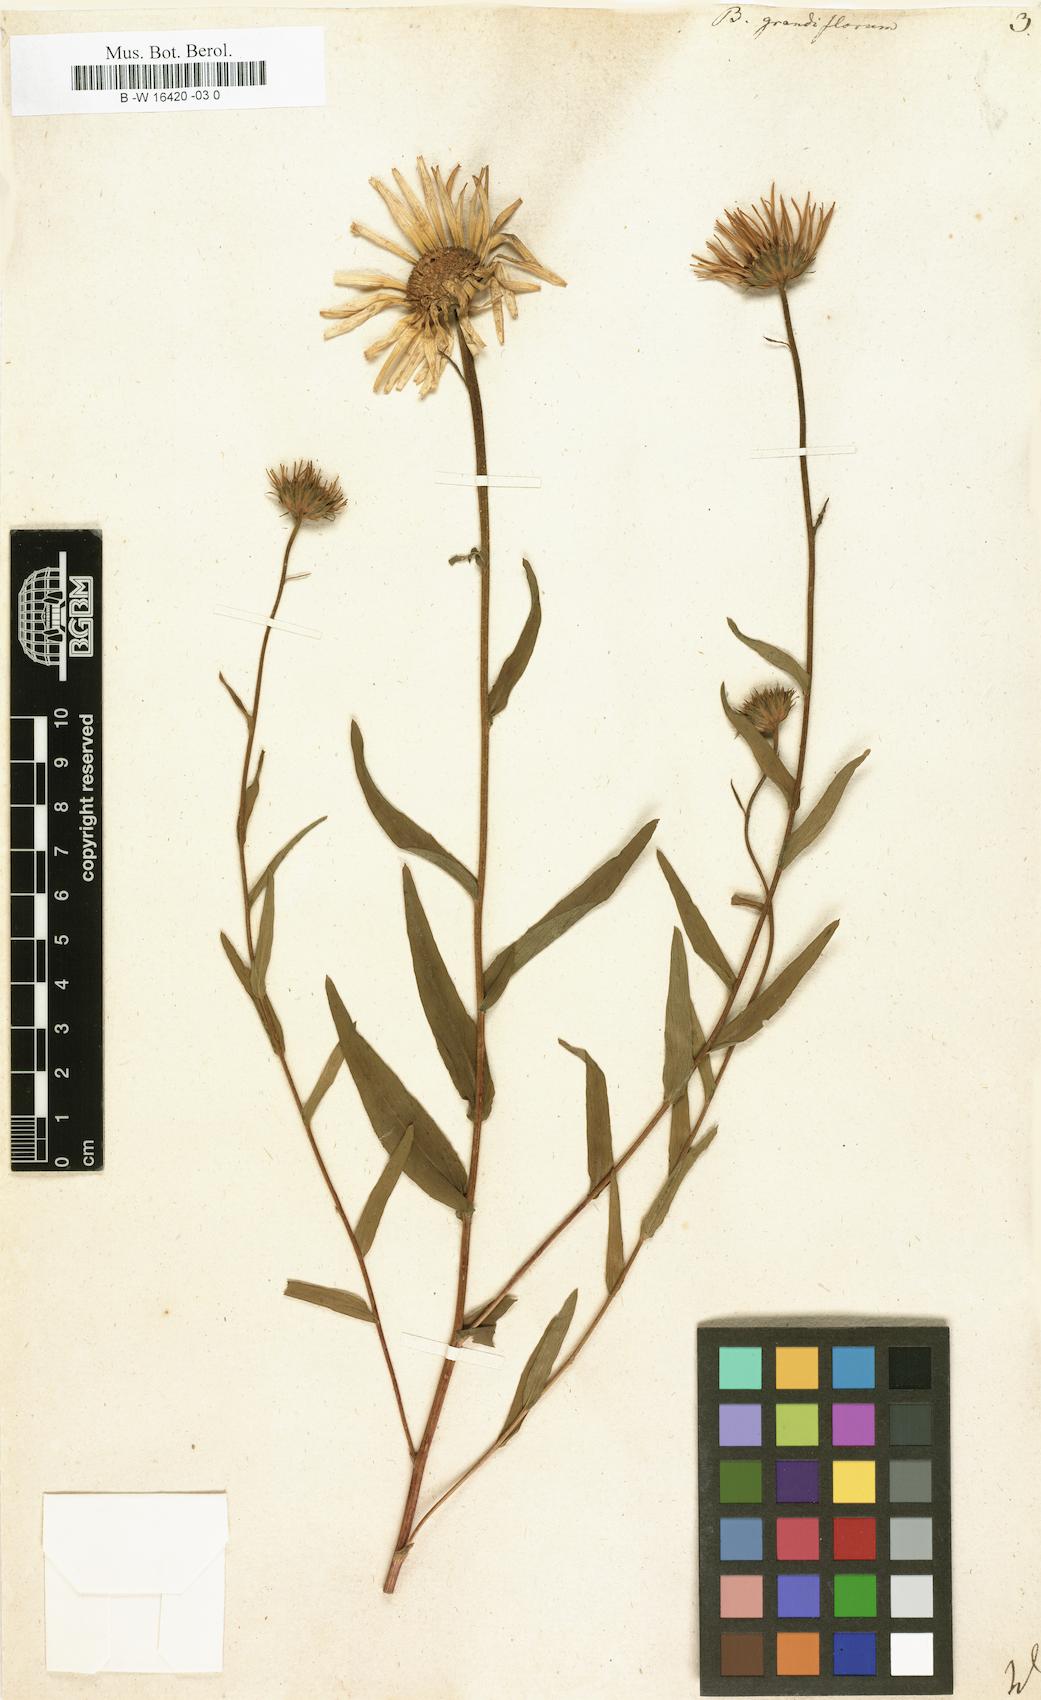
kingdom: Plantae
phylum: Tracheophyta
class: Magnoliopsida
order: Asterales
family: Asteraceae
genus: Buphthalmum
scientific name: Buphthalmum salicifolium
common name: Willow-leaved yellow-oxeye
